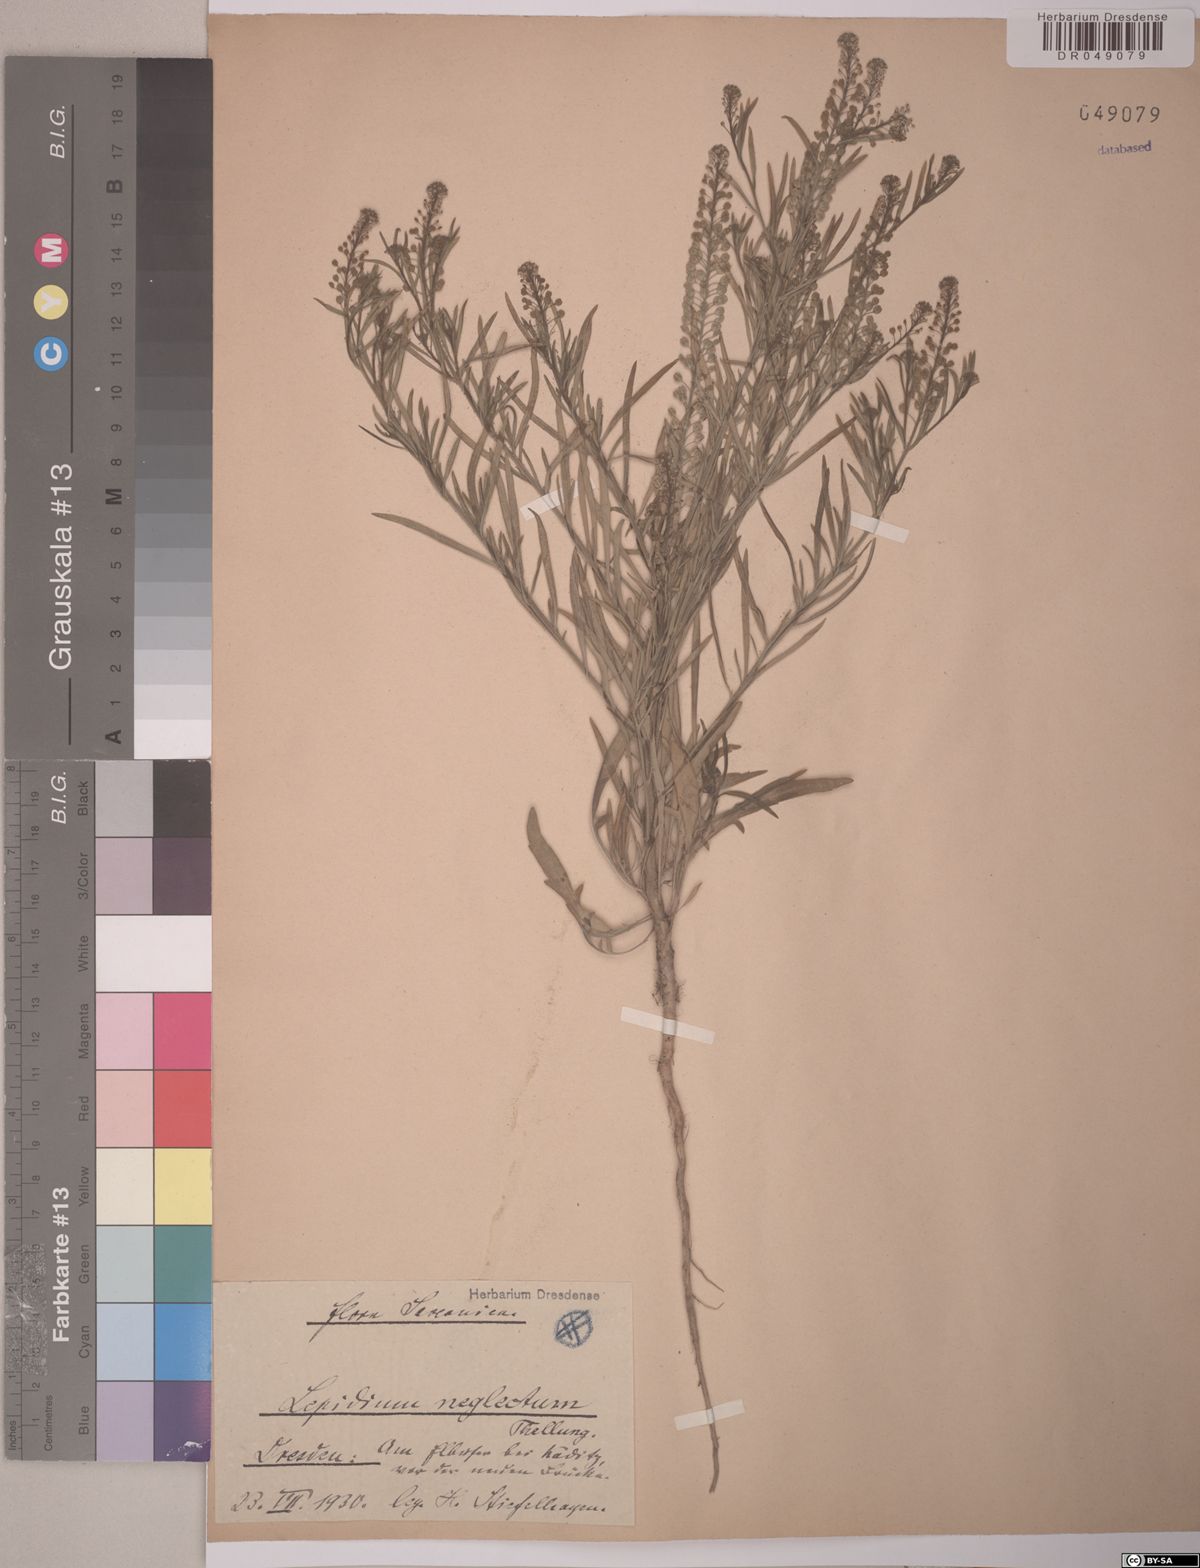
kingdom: Plantae
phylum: Tracheophyta
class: Magnoliopsida
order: Brassicales
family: Brassicaceae
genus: Lepidium
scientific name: Lepidium densiflorum
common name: Miner's pepperwort
